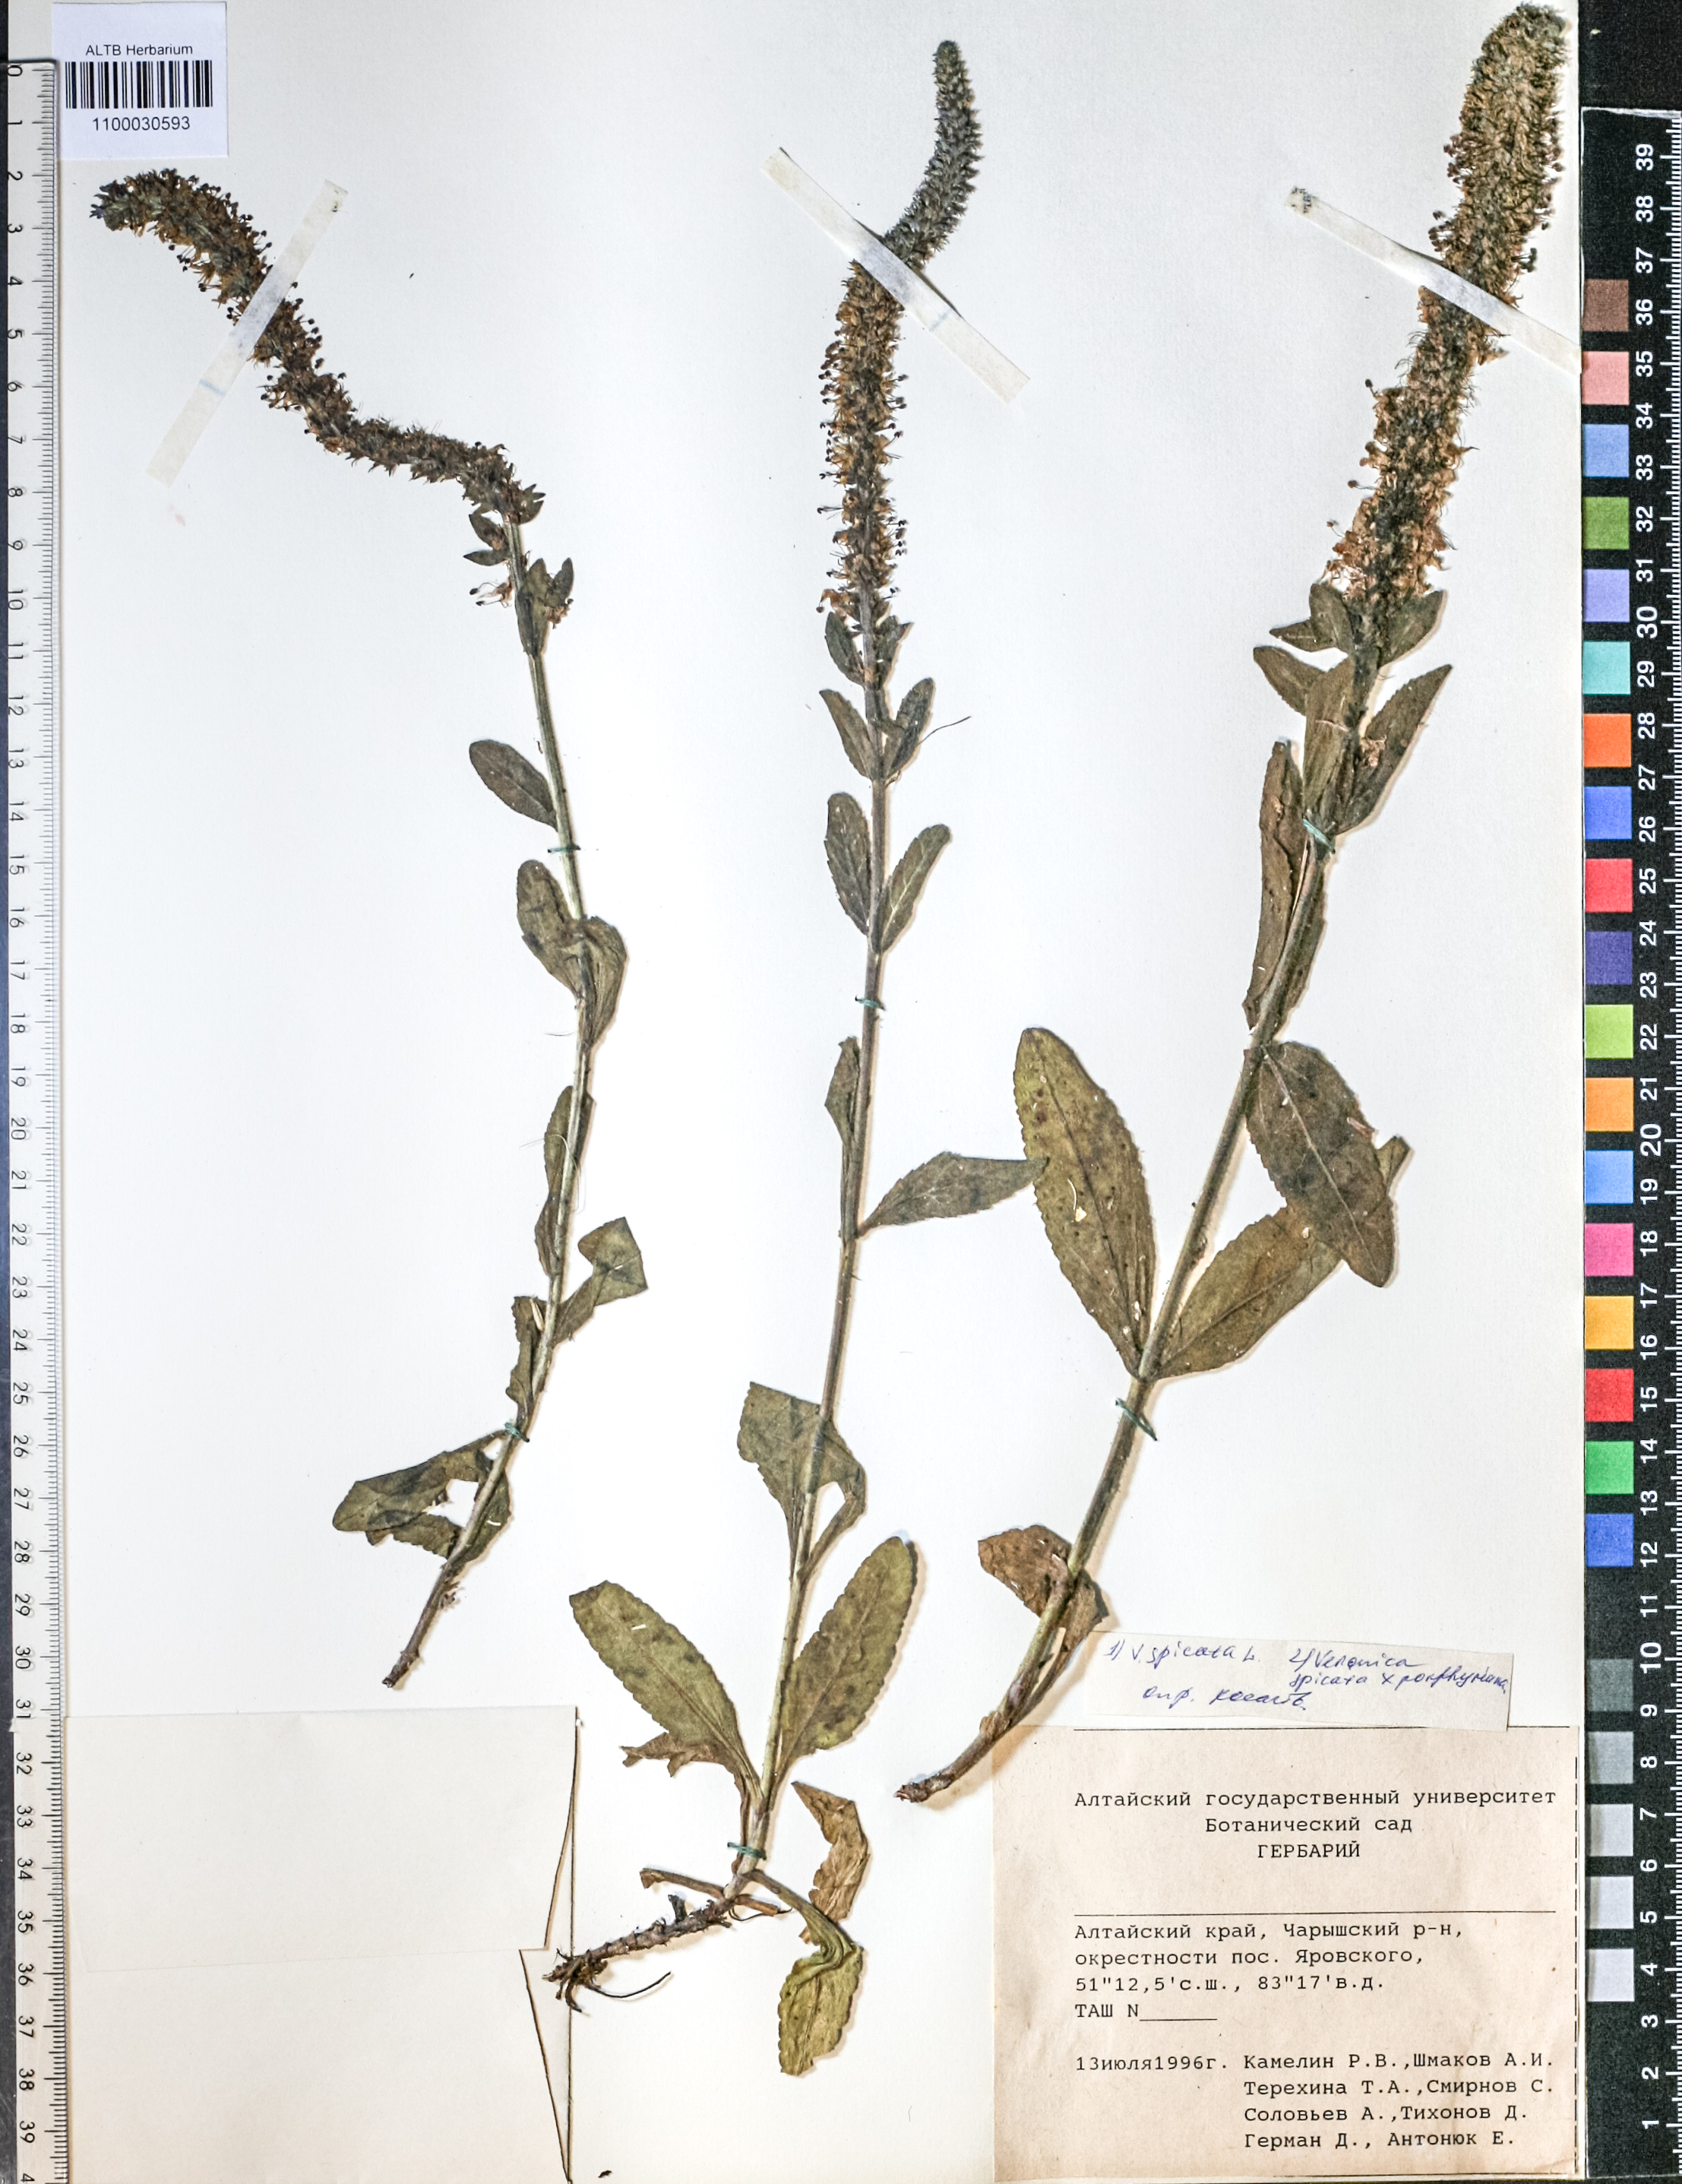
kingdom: Plantae
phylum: Tracheophyta
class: Magnoliopsida
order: Lamiales
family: Plantaginaceae
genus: Veronica
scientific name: Veronica spicata
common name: Spiked speedwell
